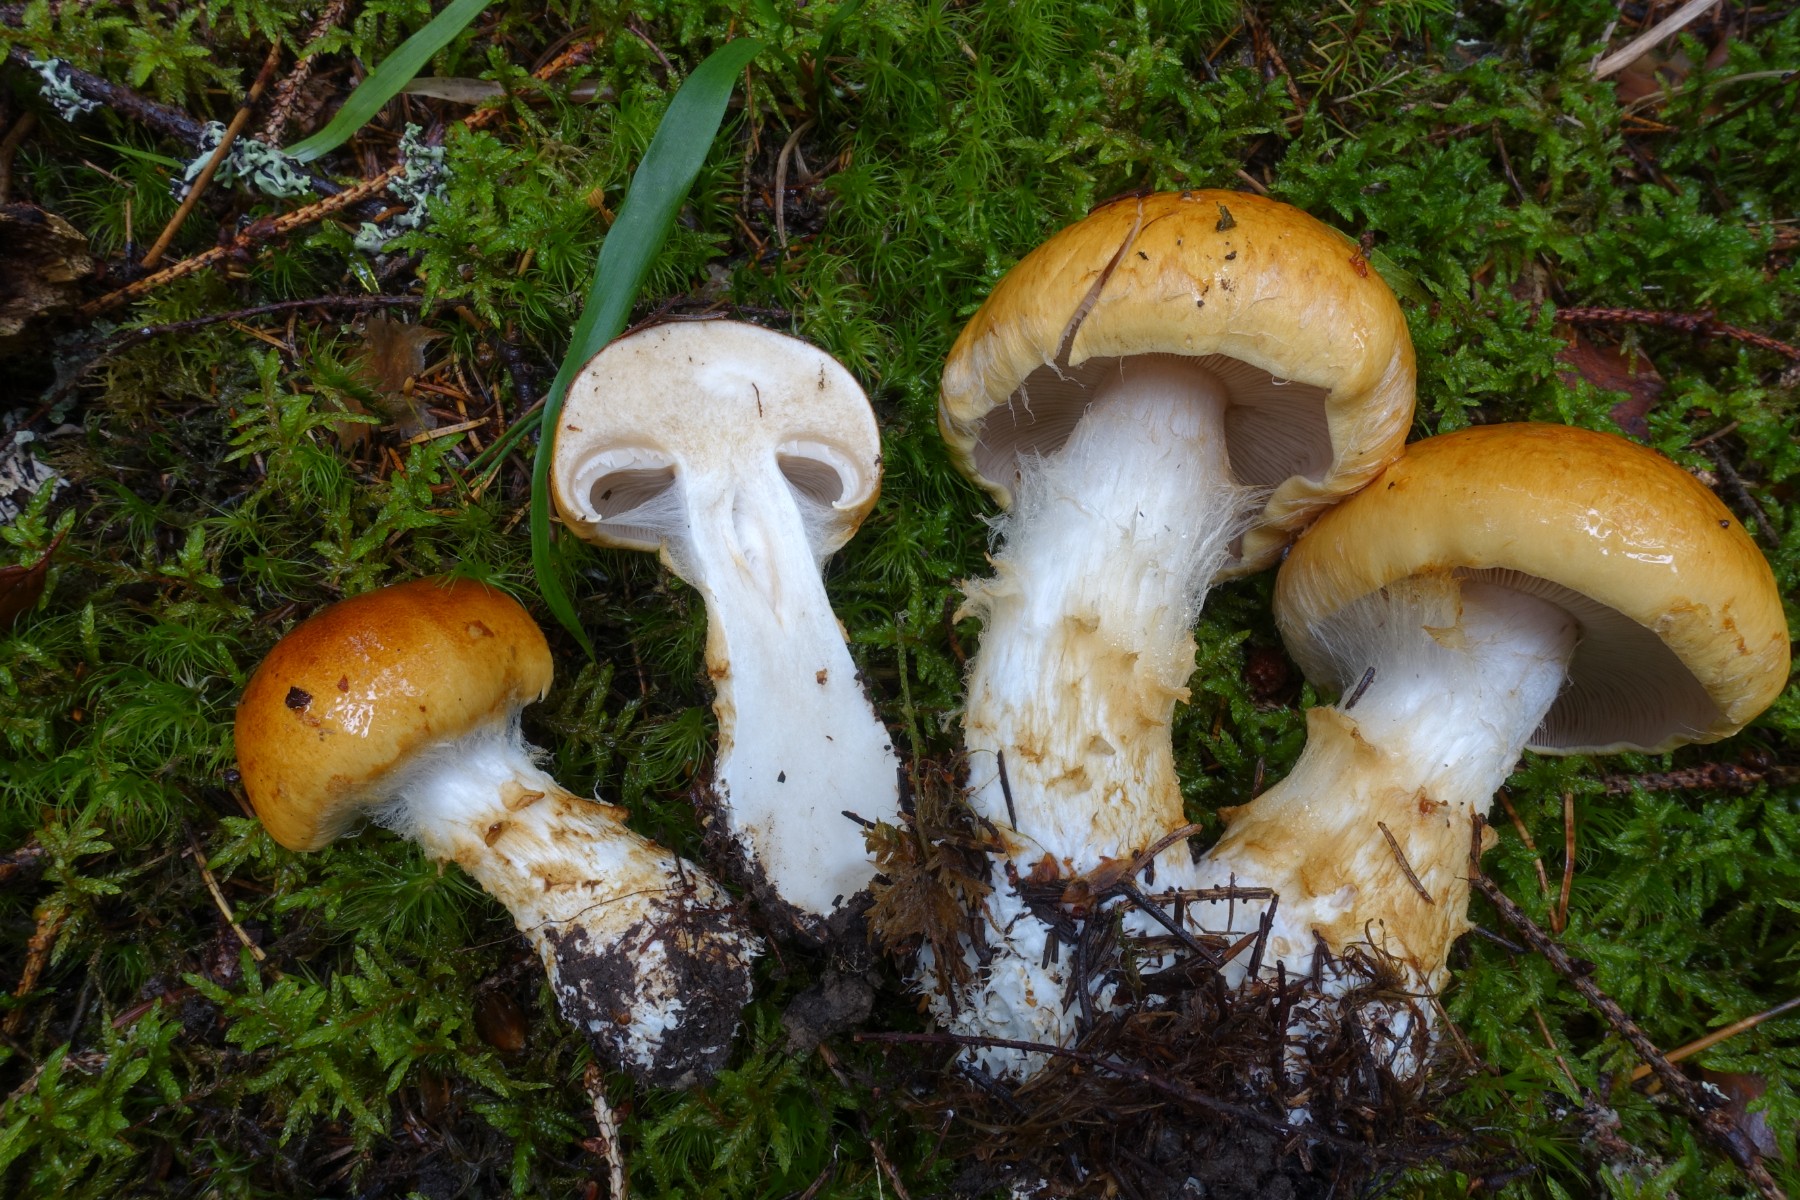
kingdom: Fungi
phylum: Basidiomycota
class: Agaricomycetes
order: Agaricales
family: Cortinariaceae
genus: Phlegmacium
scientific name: Phlegmacium saginum
